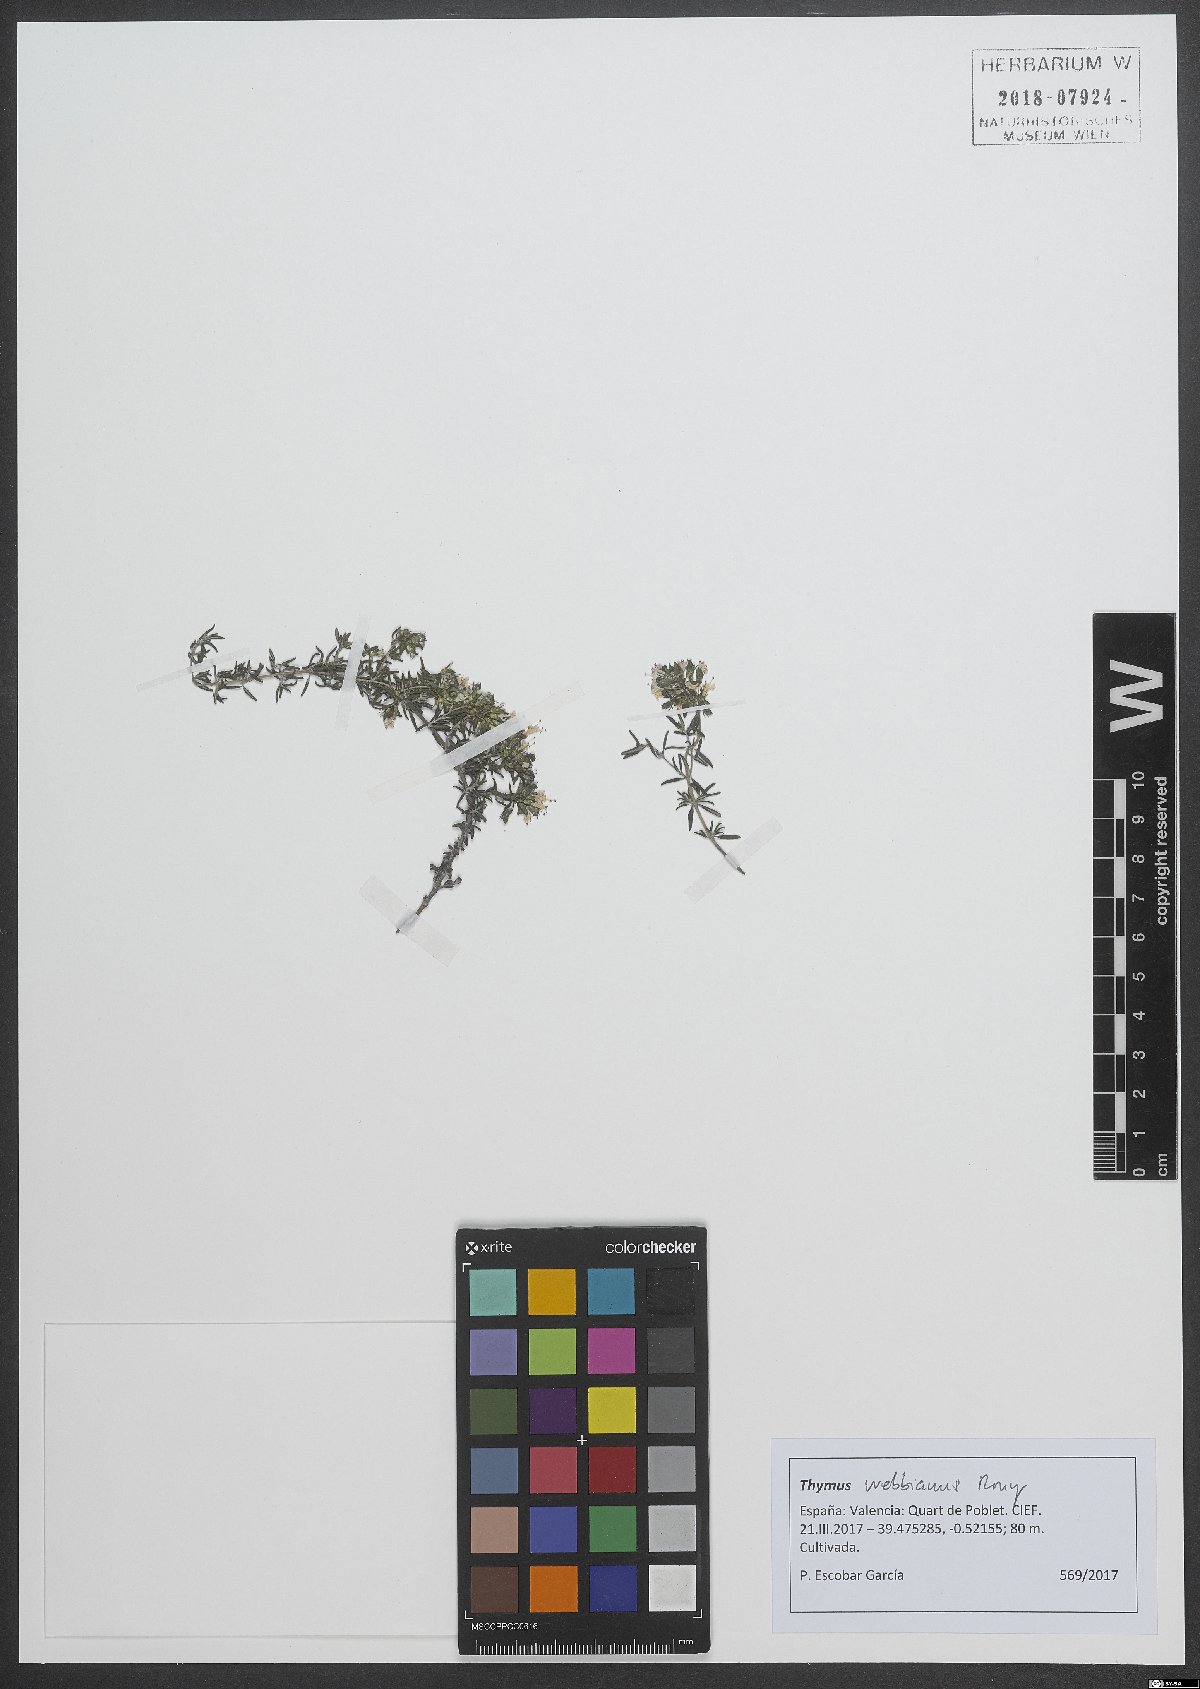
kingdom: Plantae
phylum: Tracheophyta
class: Magnoliopsida
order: Lamiales
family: Lamiaceae
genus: Thymus
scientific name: Thymus vulgaris
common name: Garden thyme
